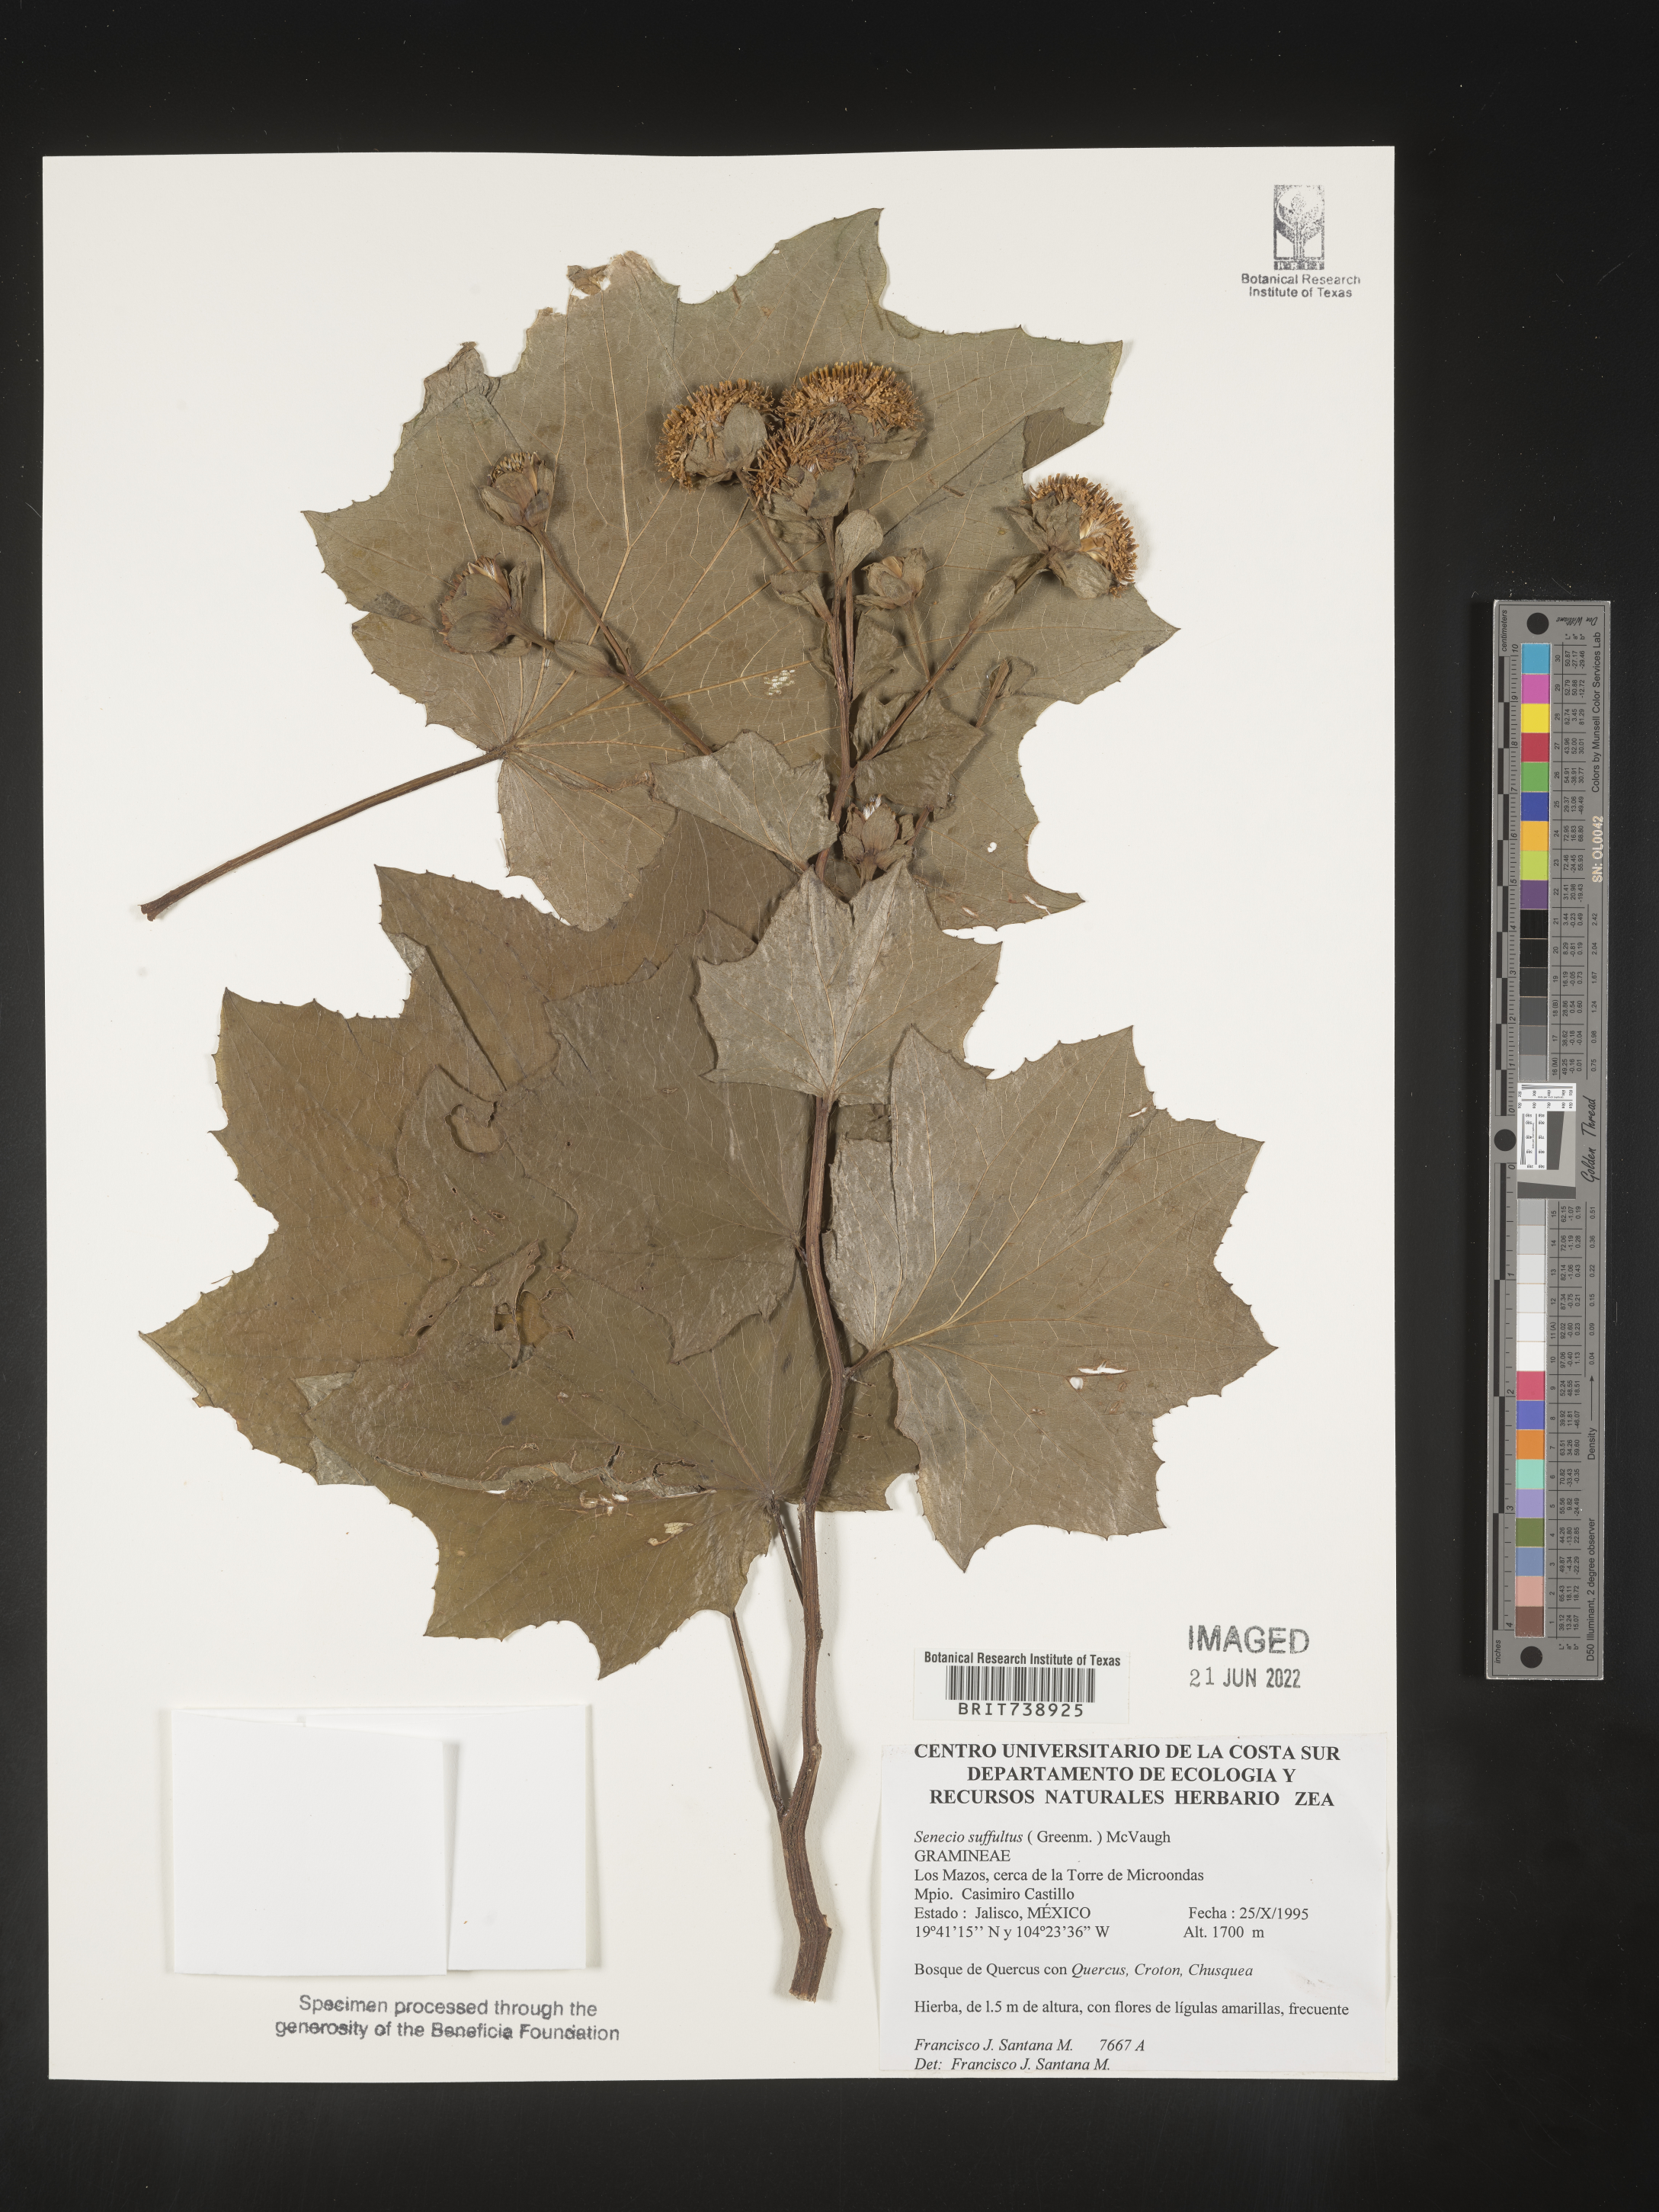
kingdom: Plantae
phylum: Tracheophyta
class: Magnoliopsida
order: Asterales
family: Asteraceae
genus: Roldana
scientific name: Roldana
